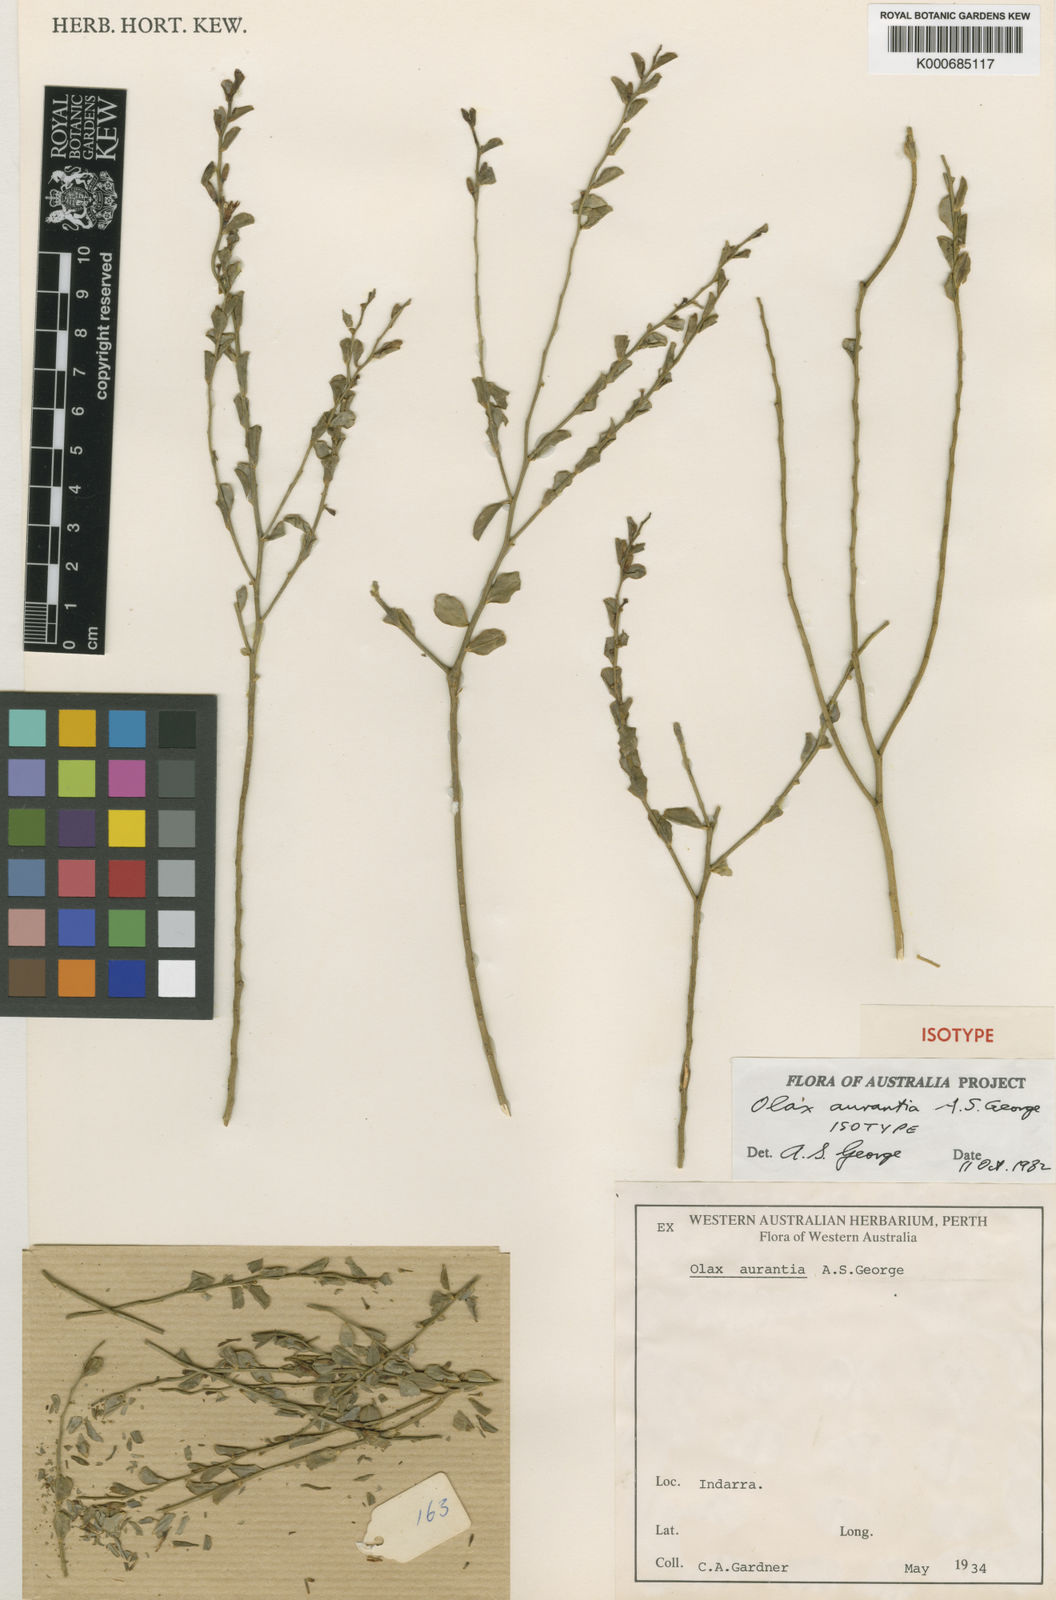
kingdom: Plantae
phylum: Tracheophyta
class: Magnoliopsida
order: Santalales
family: Olacaceae
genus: Olax
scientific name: Olax aurantia
